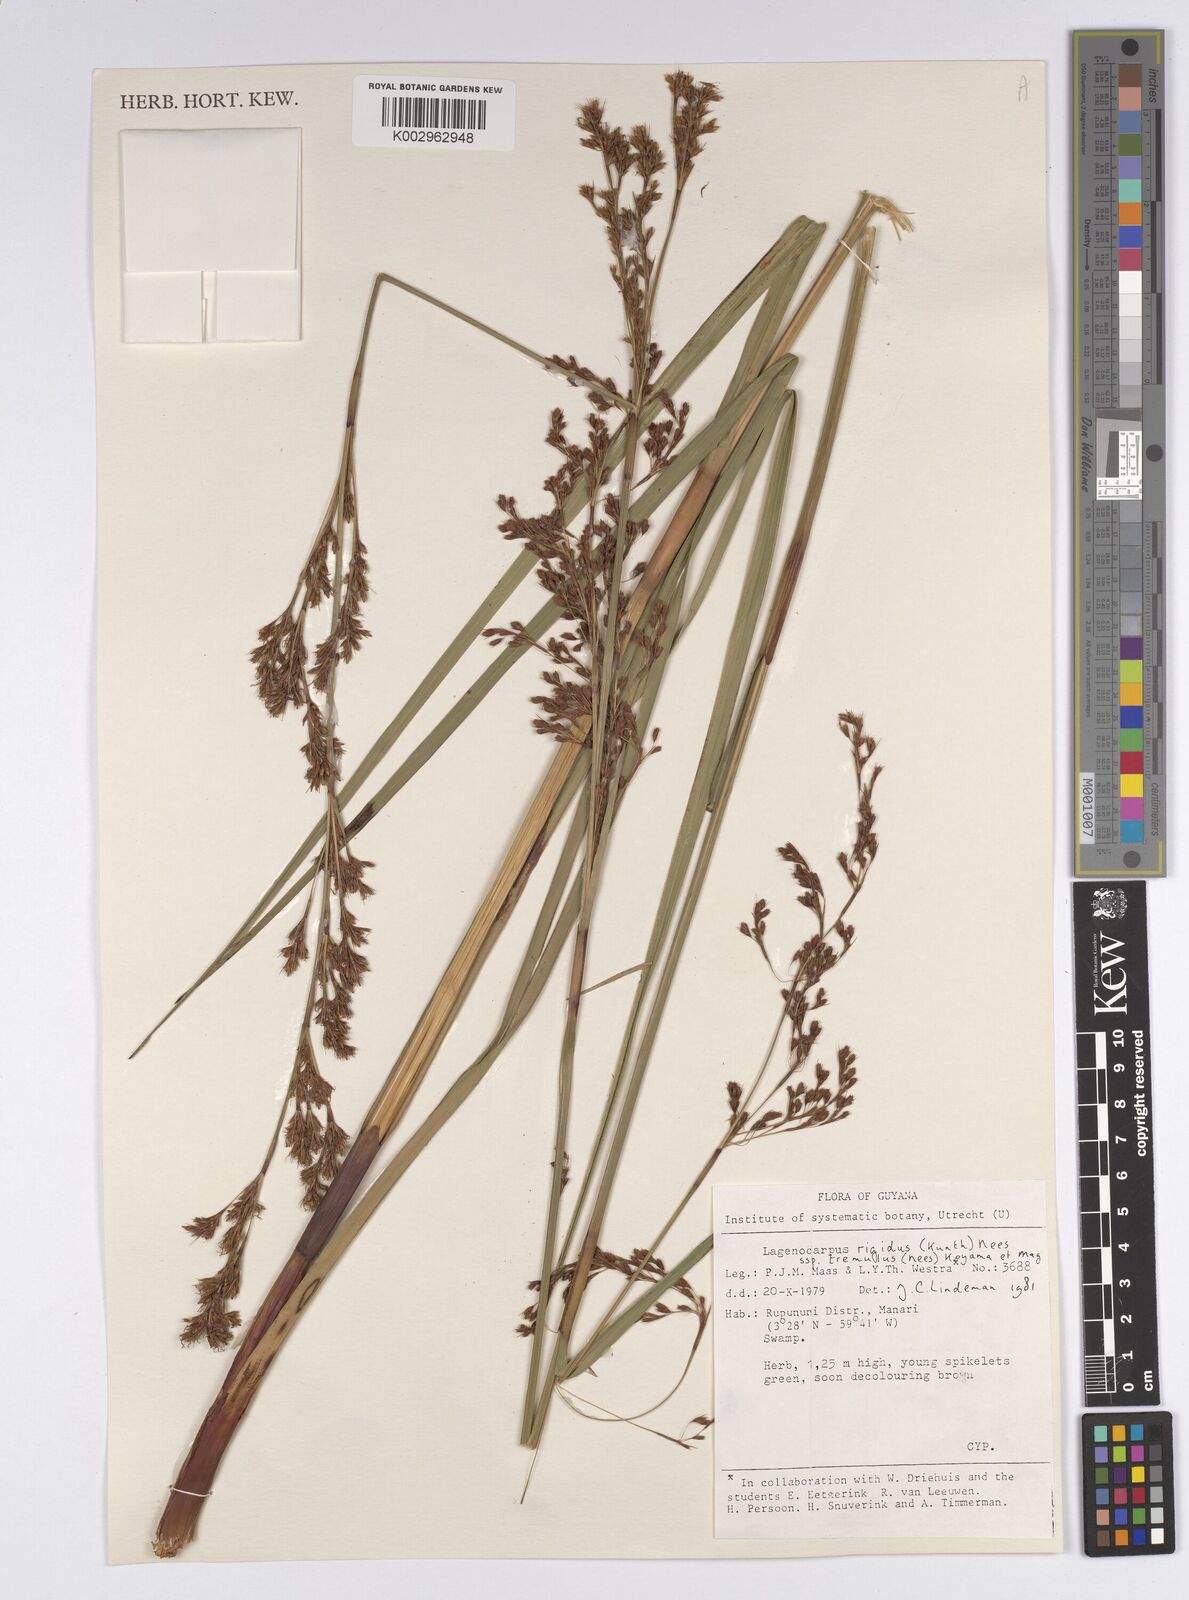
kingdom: Plantae
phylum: Tracheophyta
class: Liliopsida
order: Poales
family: Cyperaceae
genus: Lagenocarpus
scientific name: Lagenocarpus rigidus
